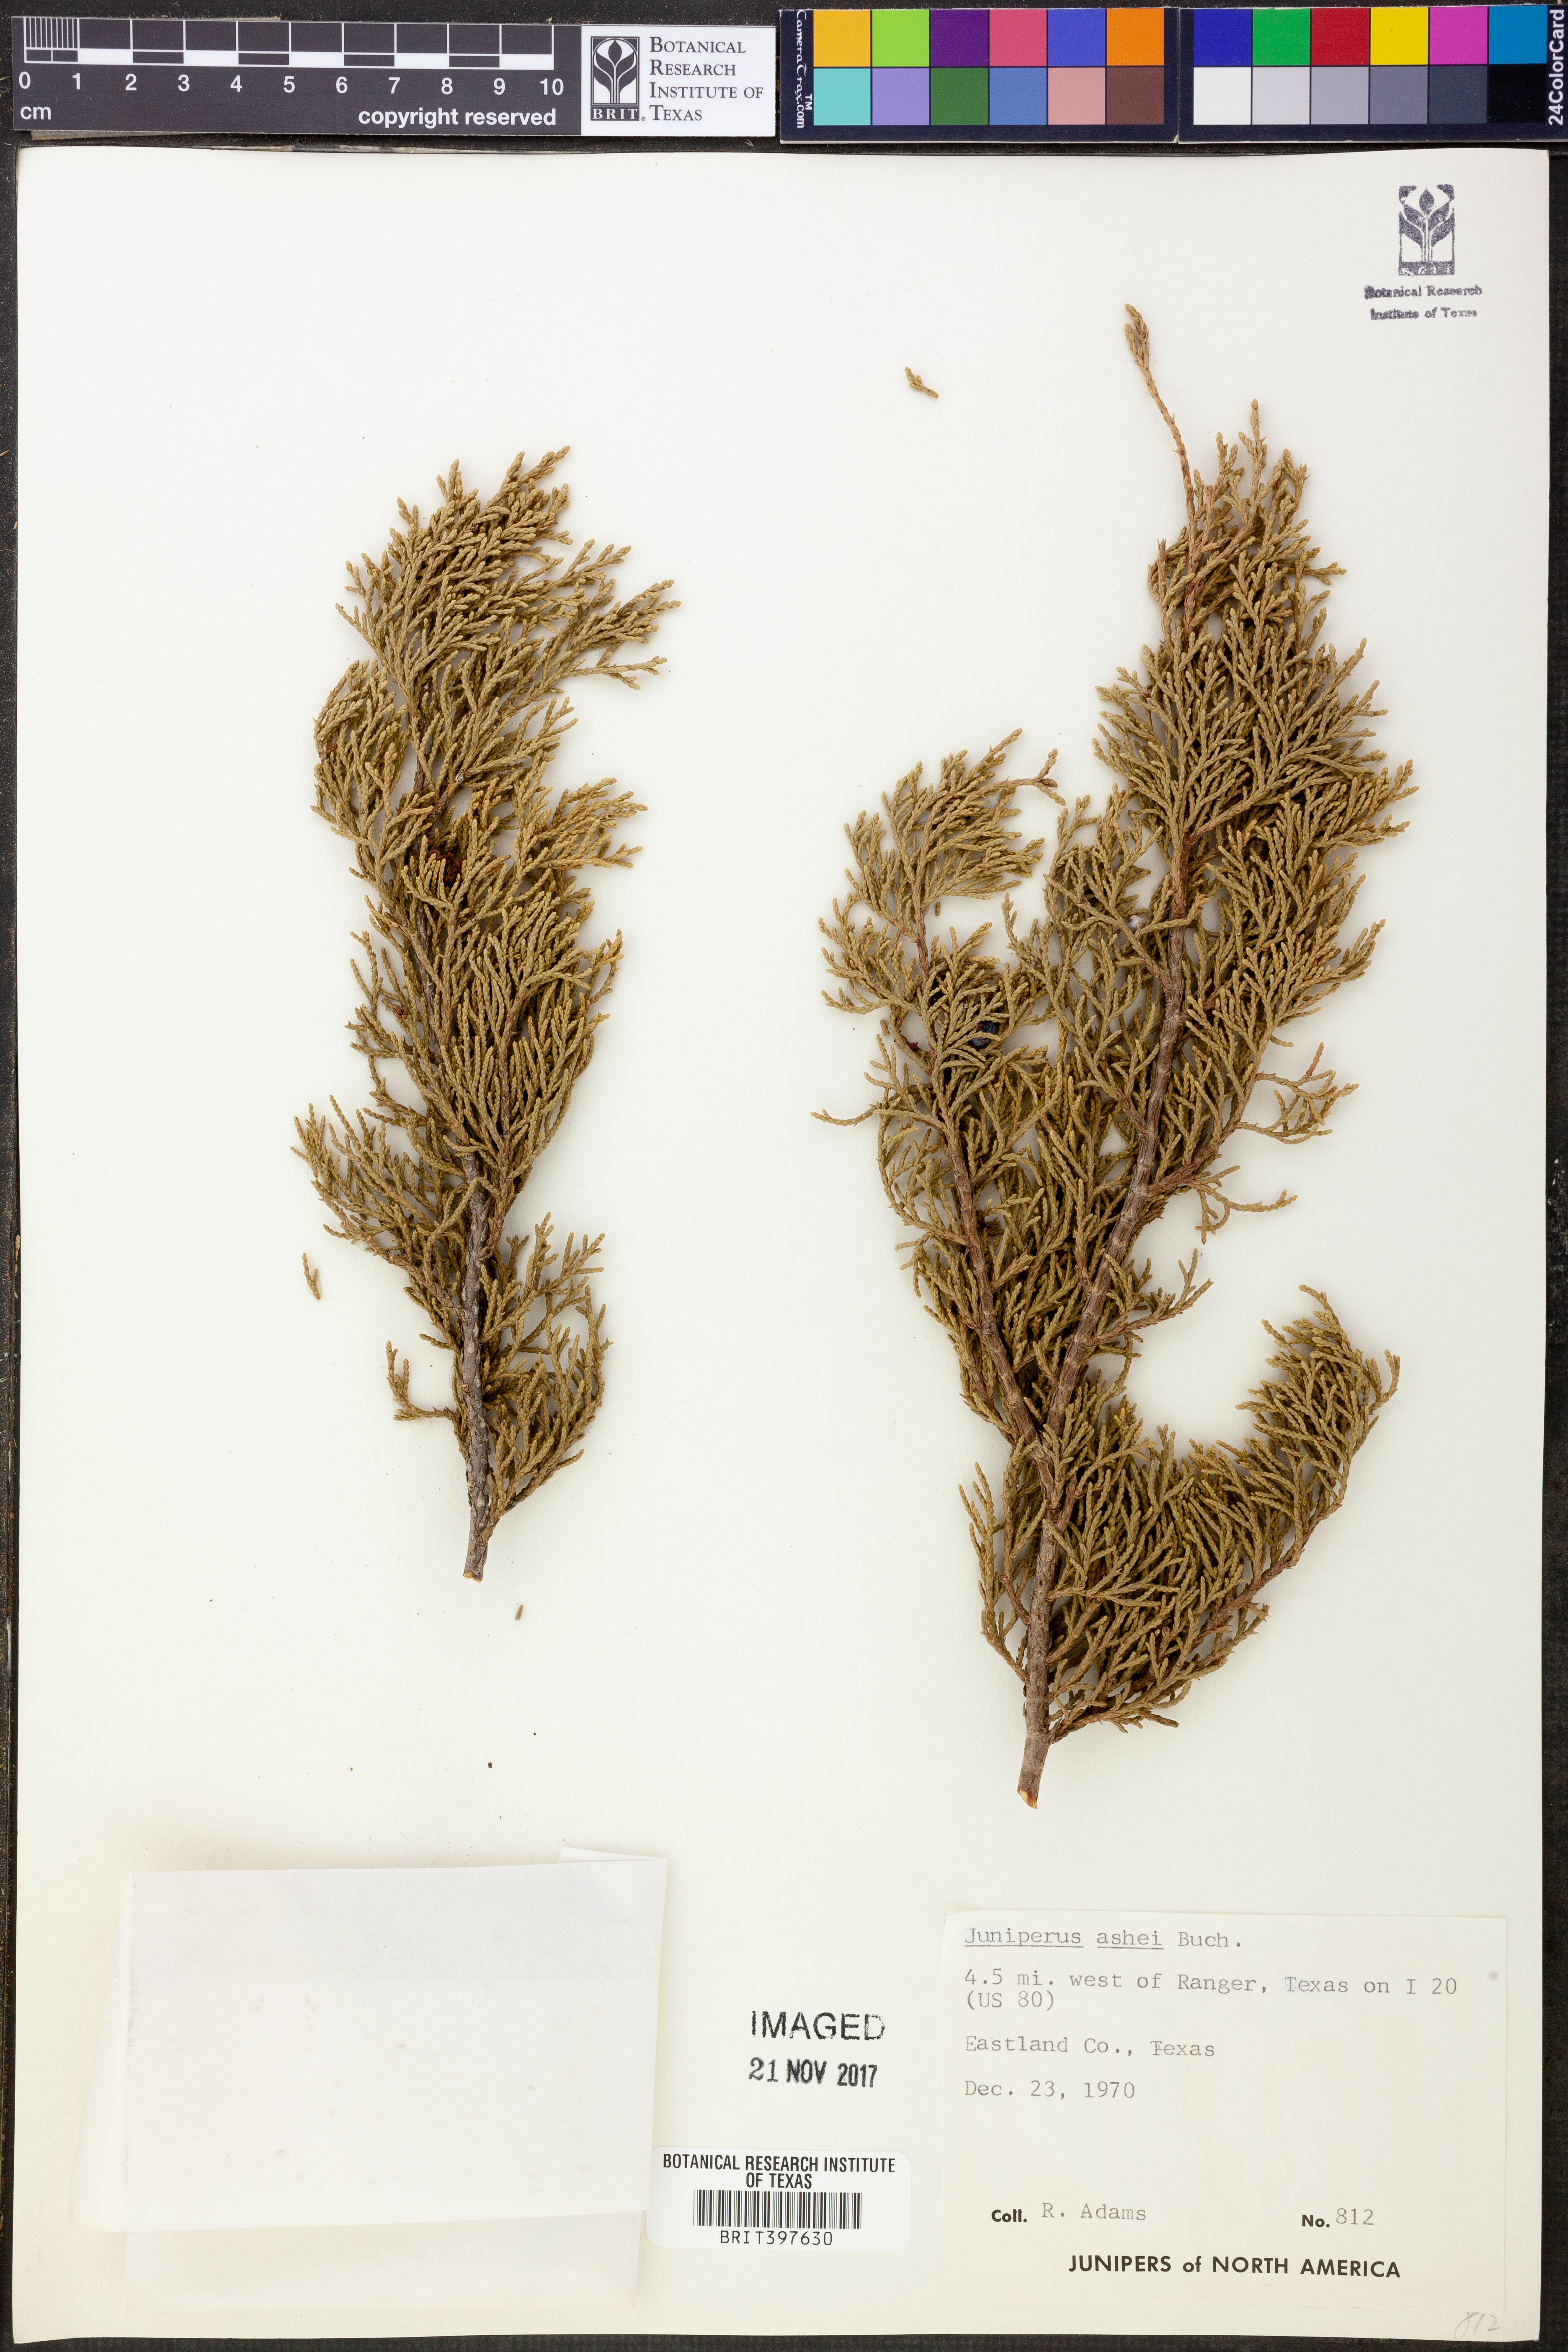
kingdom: Plantae
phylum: Tracheophyta
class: Pinopsida
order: Pinales
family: Cupressaceae
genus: Juniperus
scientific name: Juniperus ashei
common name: Mexican juniper
